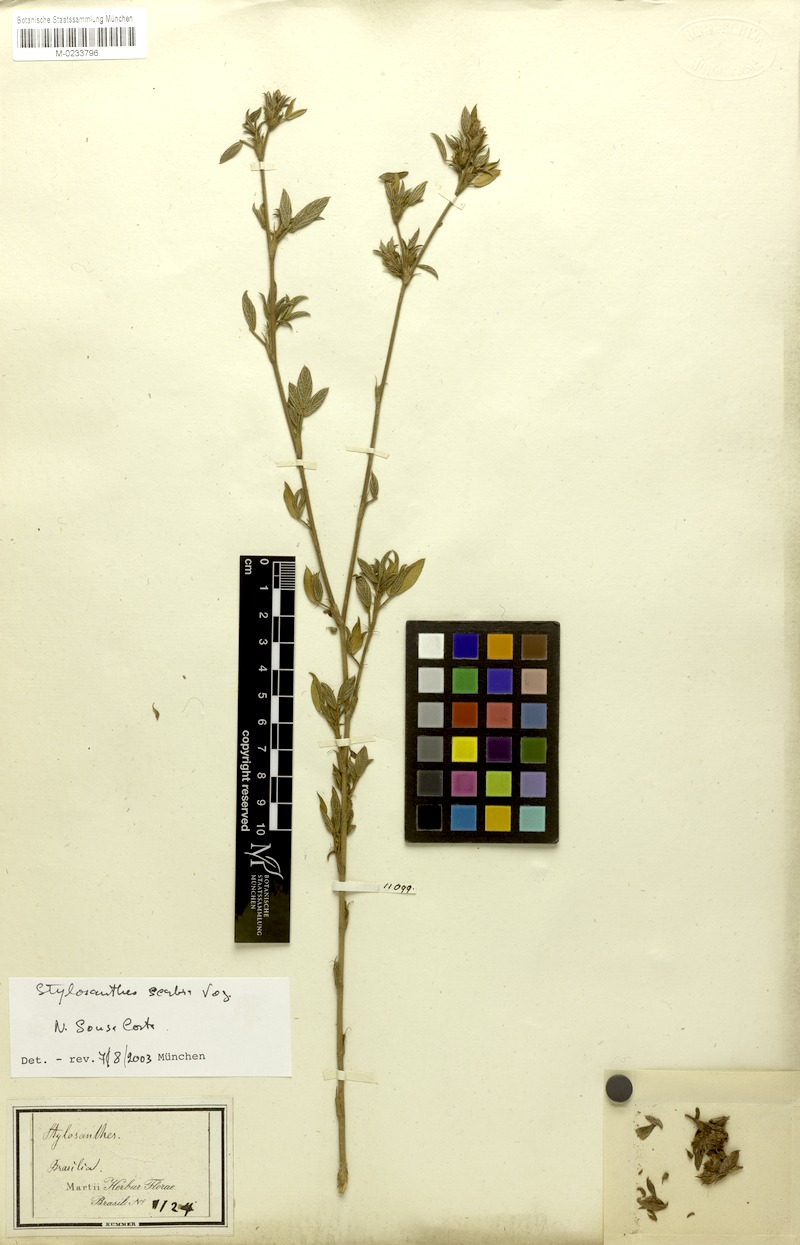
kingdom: Plantae
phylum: Tracheophyta
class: Magnoliopsida
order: Fabales
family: Fabaceae
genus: Stylosanthes
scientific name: Stylosanthes scabra
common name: Pencilflower
